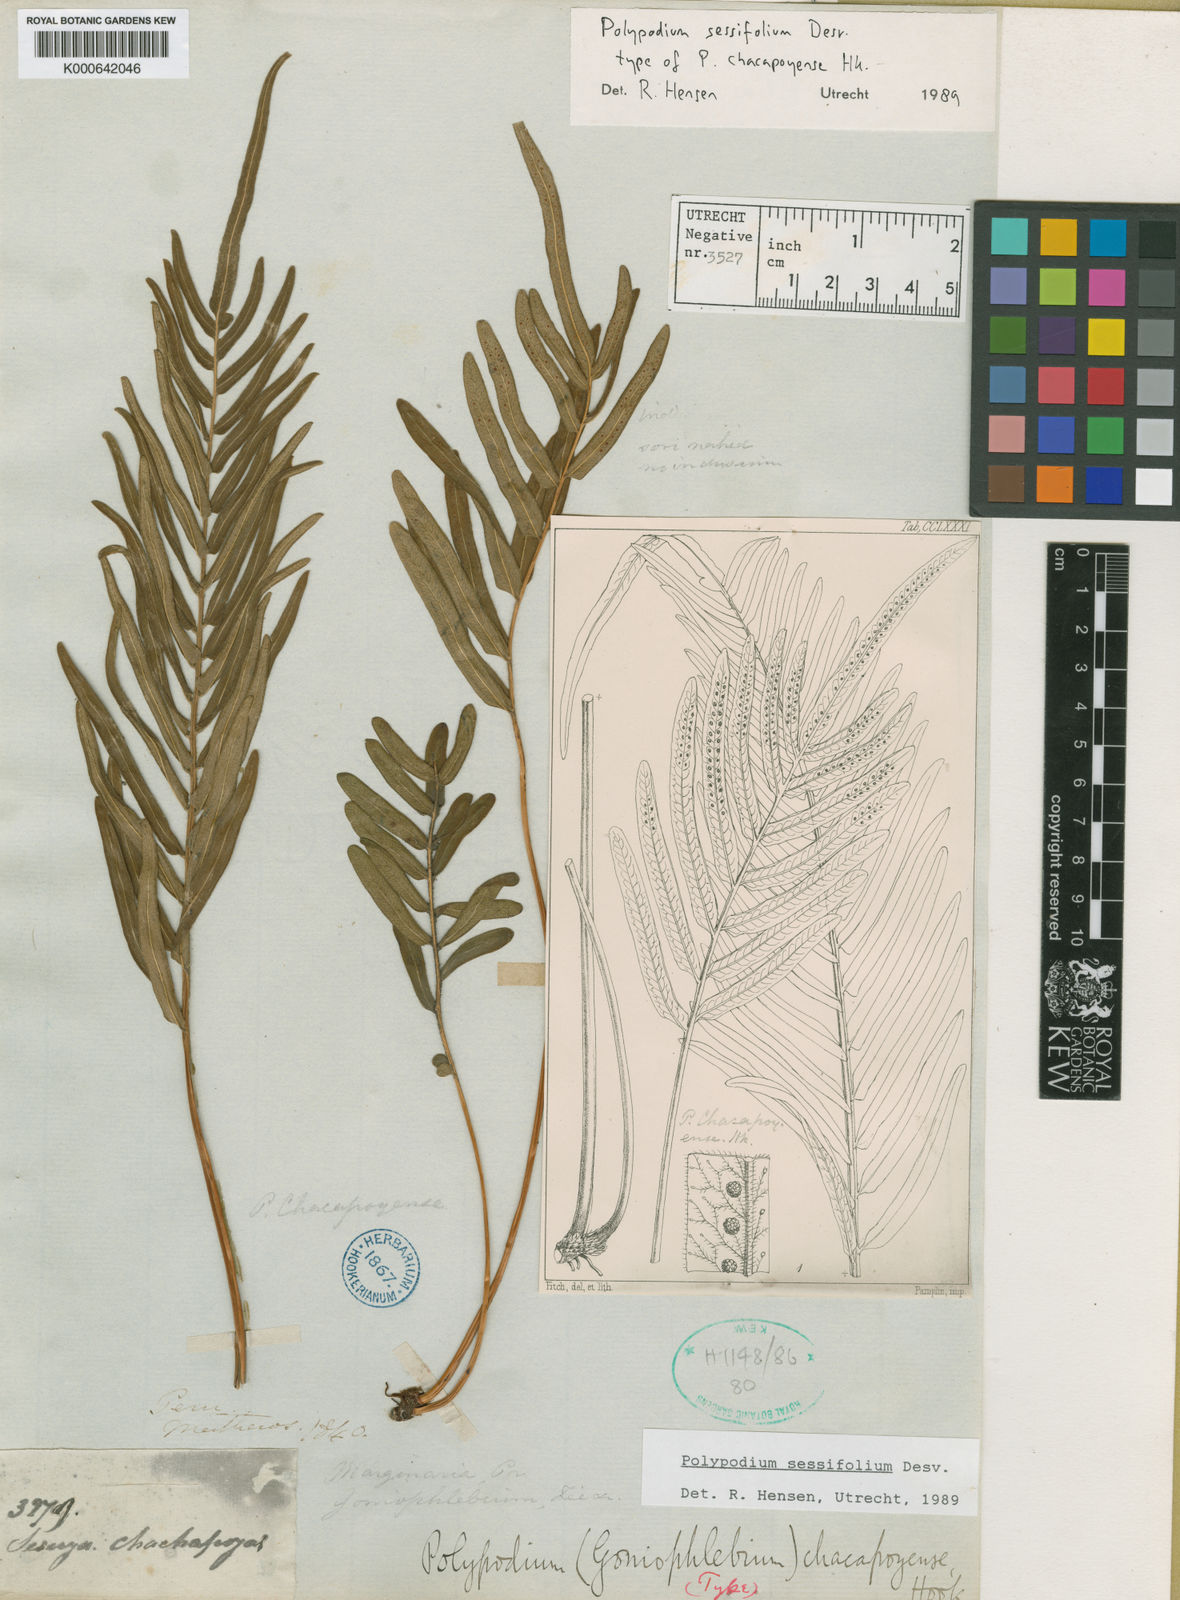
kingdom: Plantae
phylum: Tracheophyta
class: Polypodiopsida
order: Polypodiales
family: Polypodiaceae
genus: Polypodium
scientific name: Polypodium
